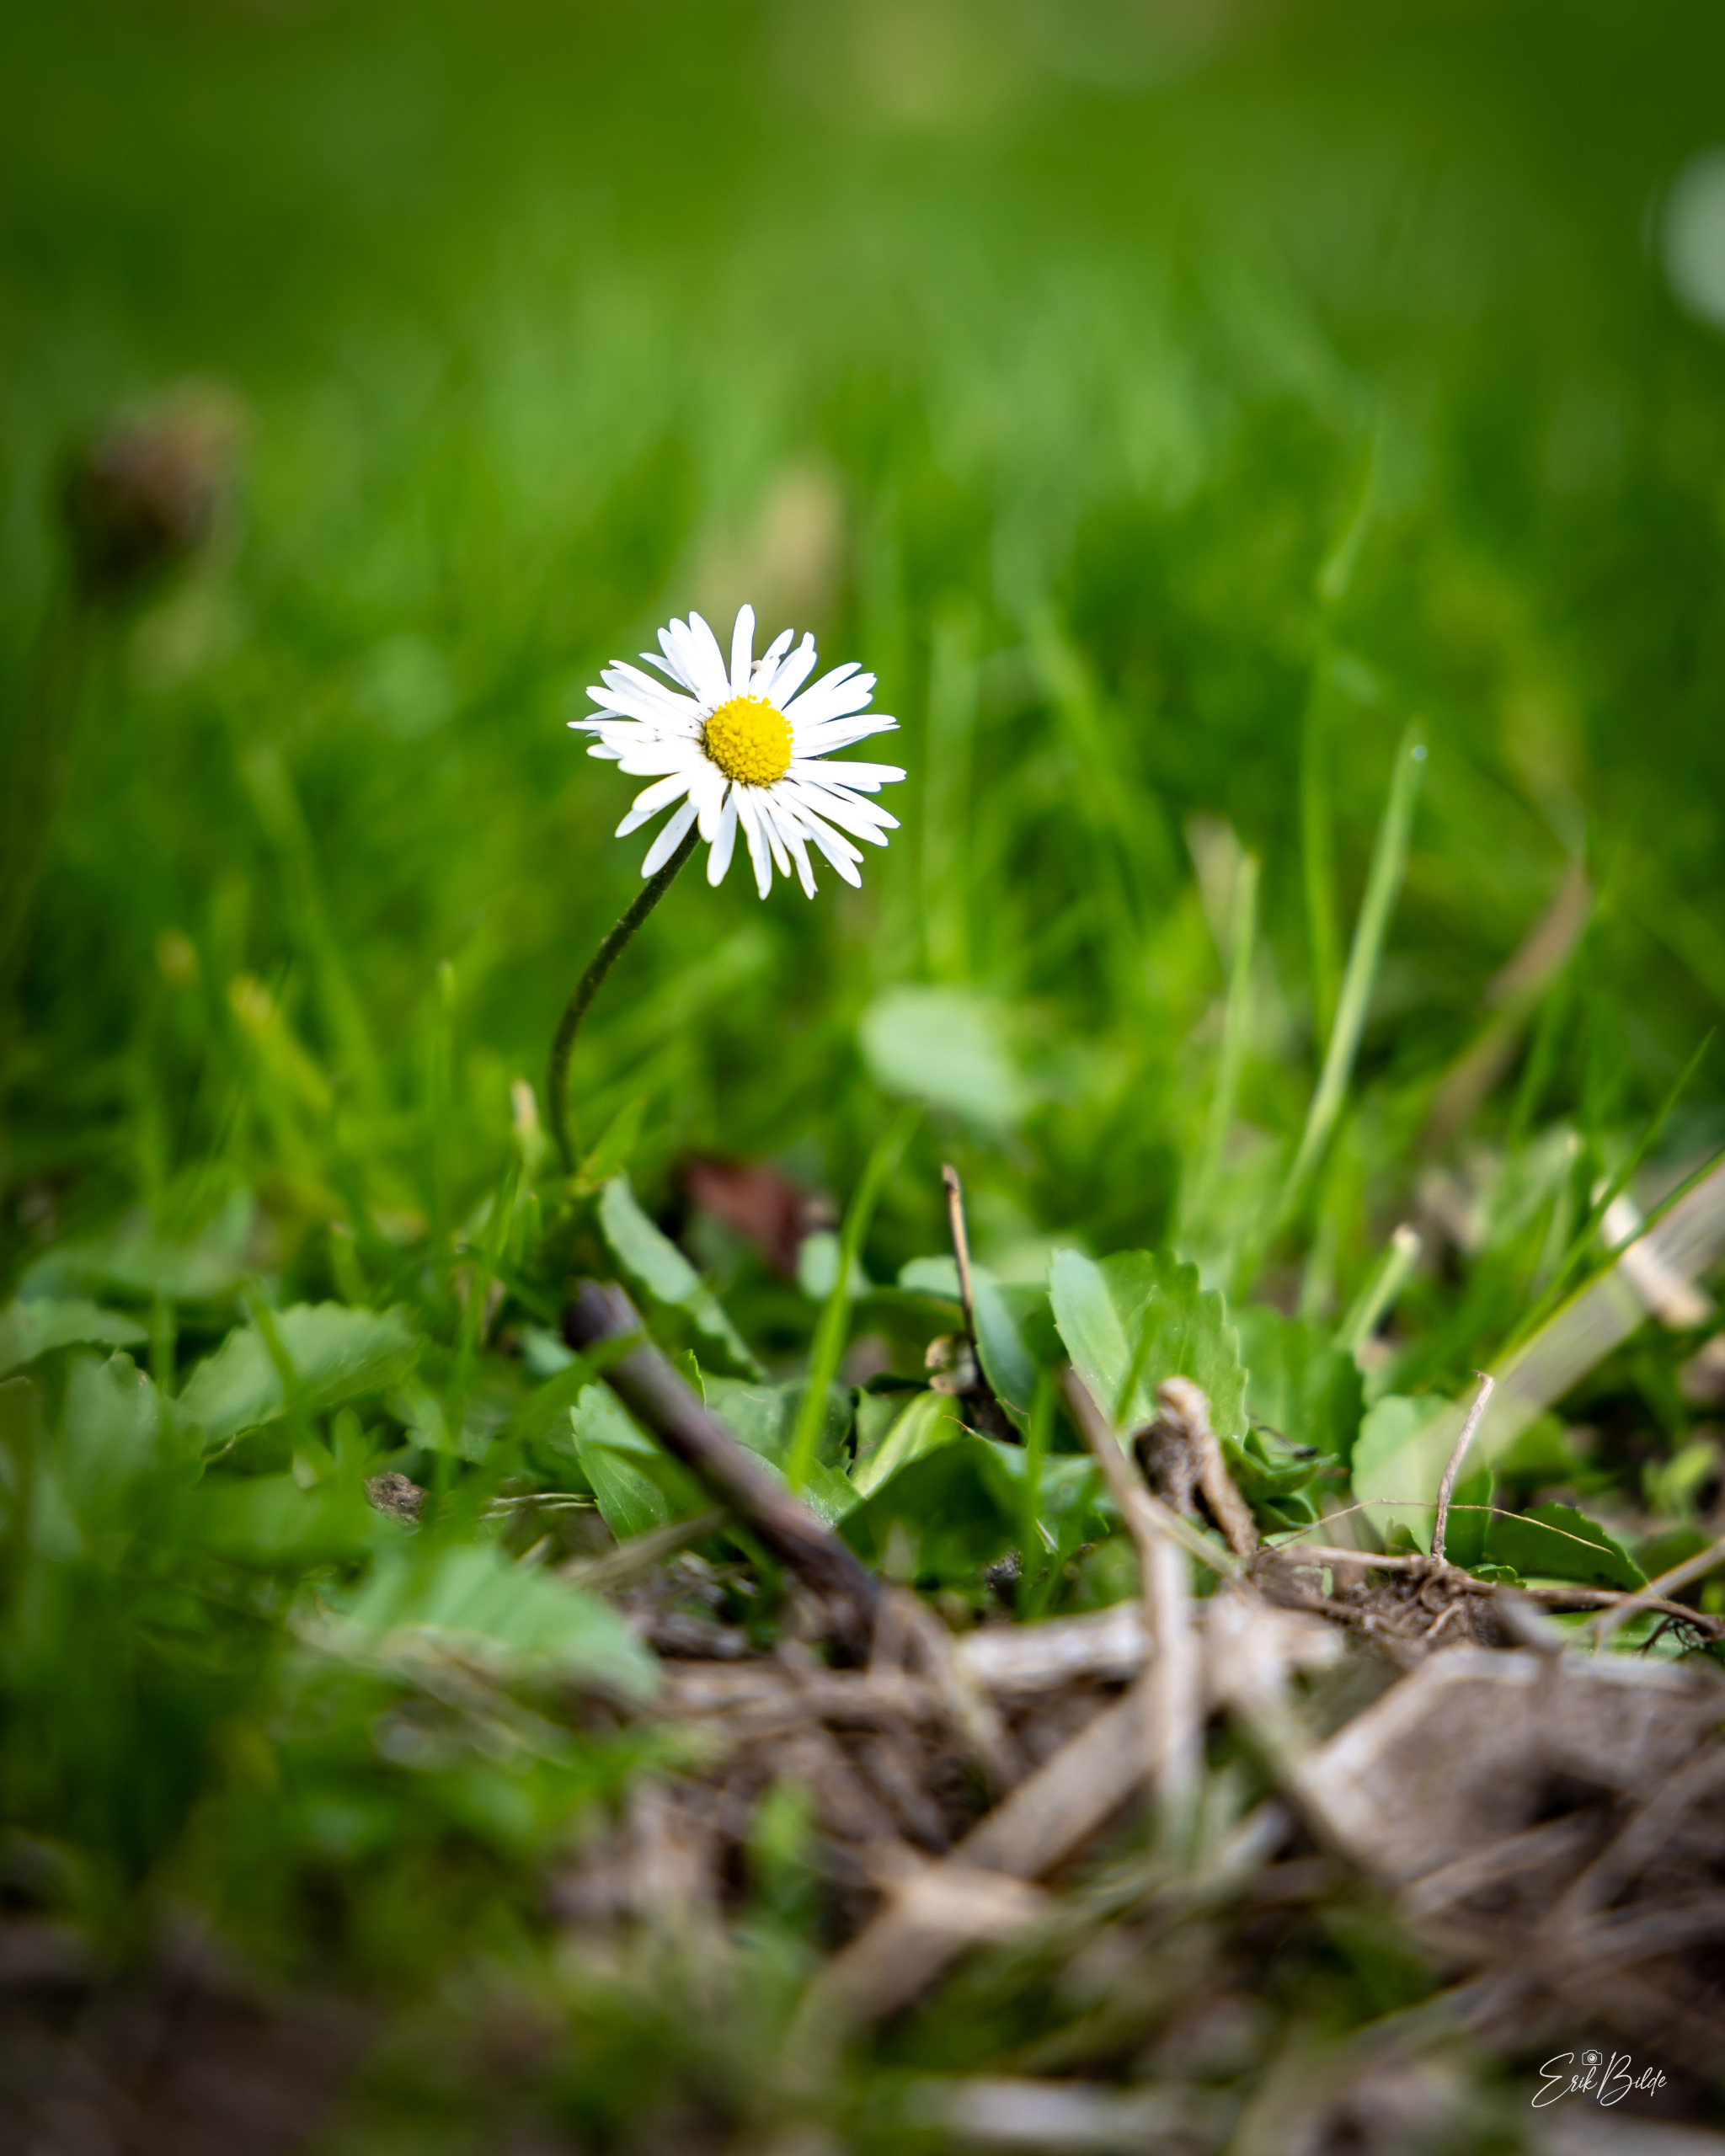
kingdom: Plantae
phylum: Tracheophyta
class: Magnoliopsida
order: Asterales
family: Asteraceae
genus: Bellis
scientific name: Bellis perennis
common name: Tusindfryd
